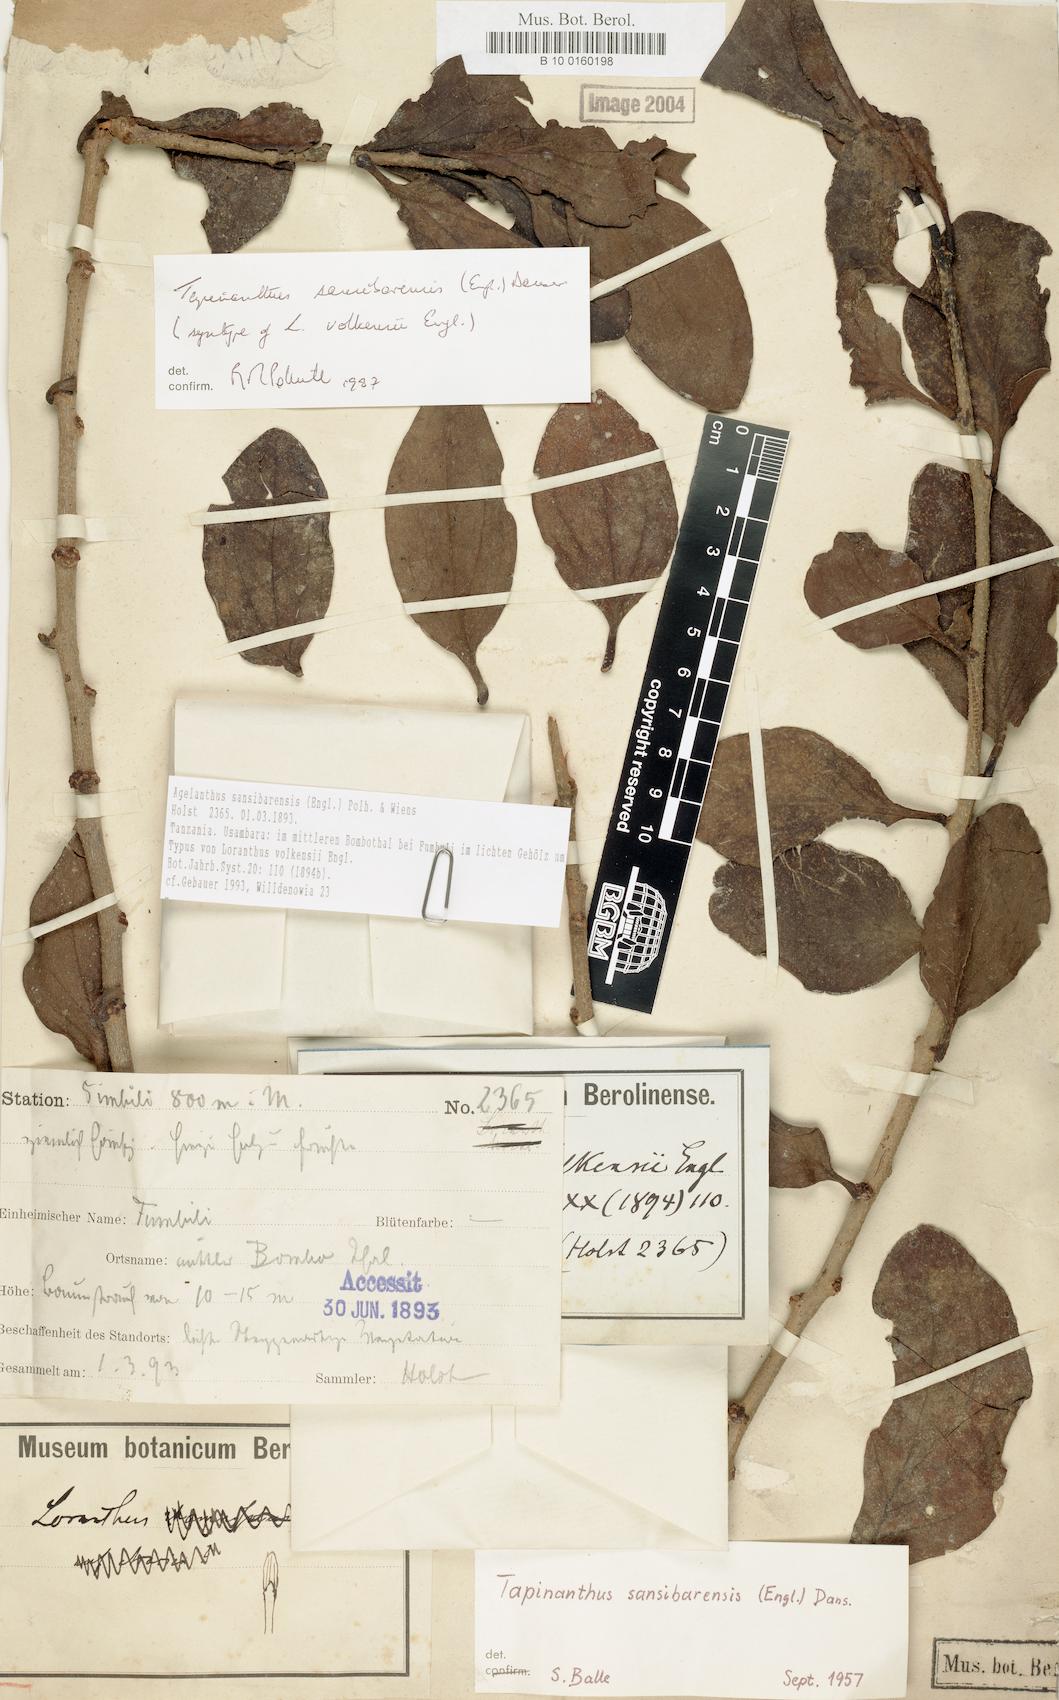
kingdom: Plantae
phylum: Tracheophyta
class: Magnoliopsida
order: Santalales
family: Loranthaceae
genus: Agelanthus
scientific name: Agelanthus sansibarensis
